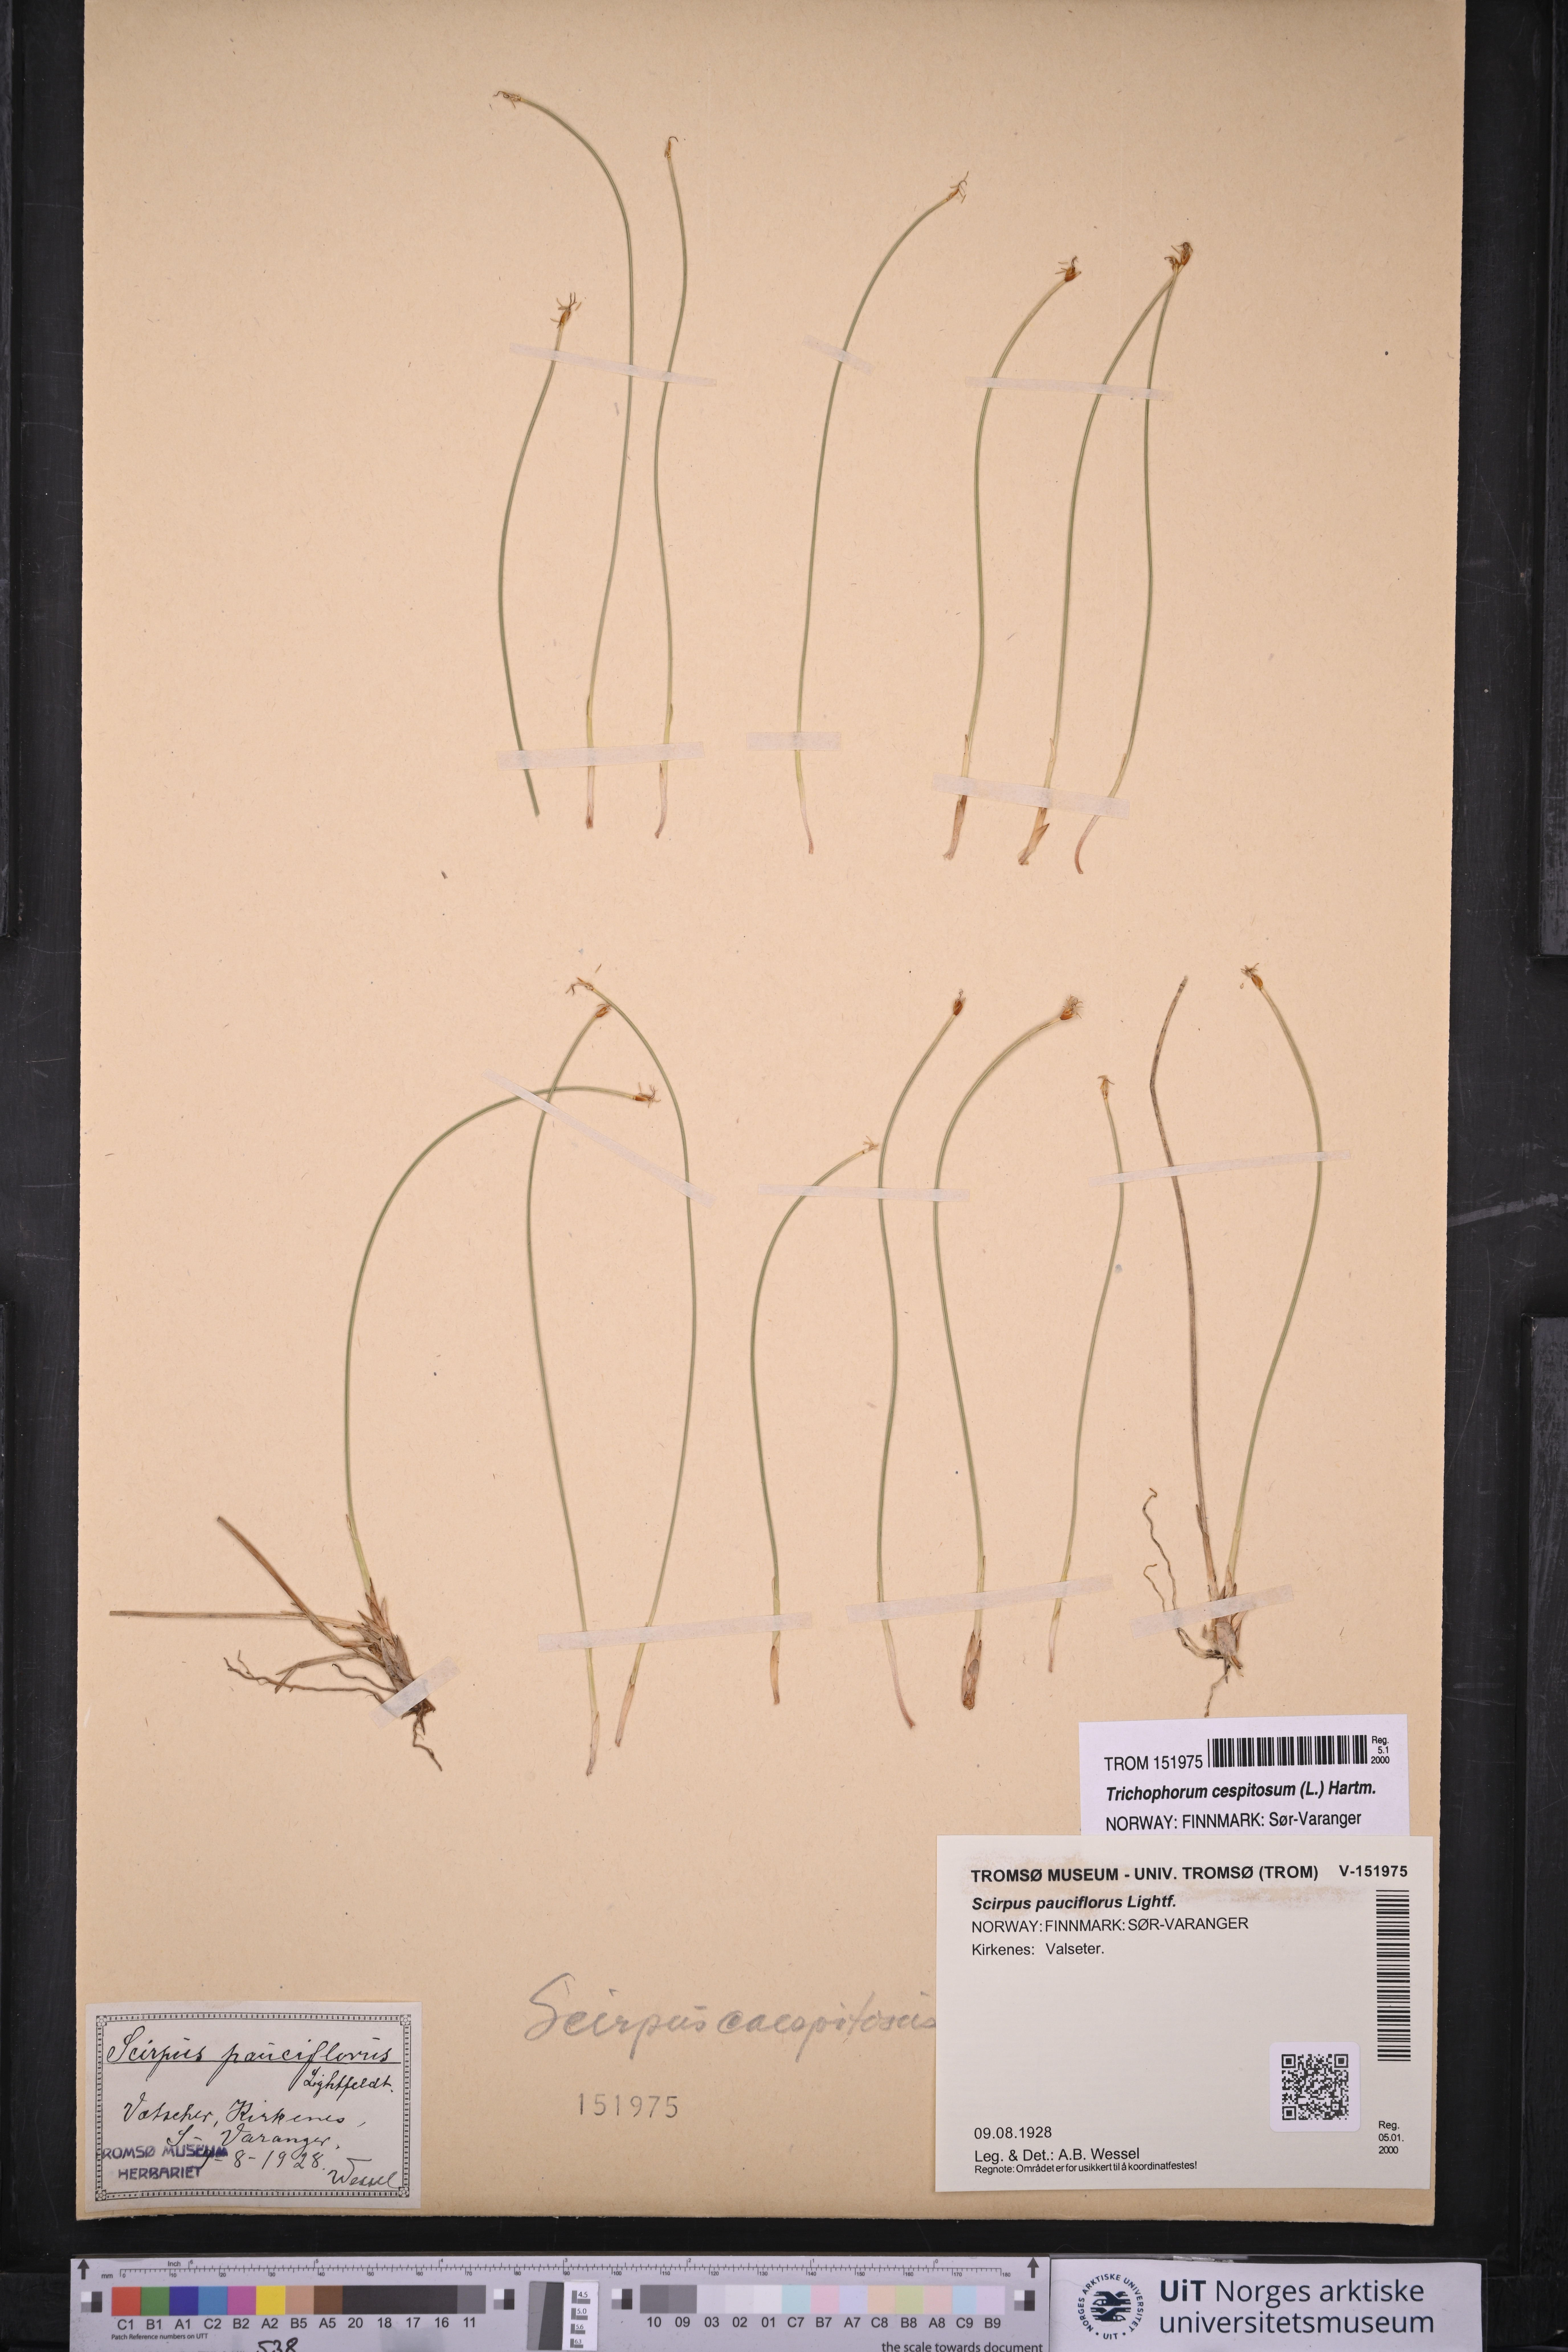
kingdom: Plantae
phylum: Tracheophyta
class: Liliopsida
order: Poales
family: Cyperaceae
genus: Trichophorum
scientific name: Trichophorum cespitosum
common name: Cespitose bulrush
